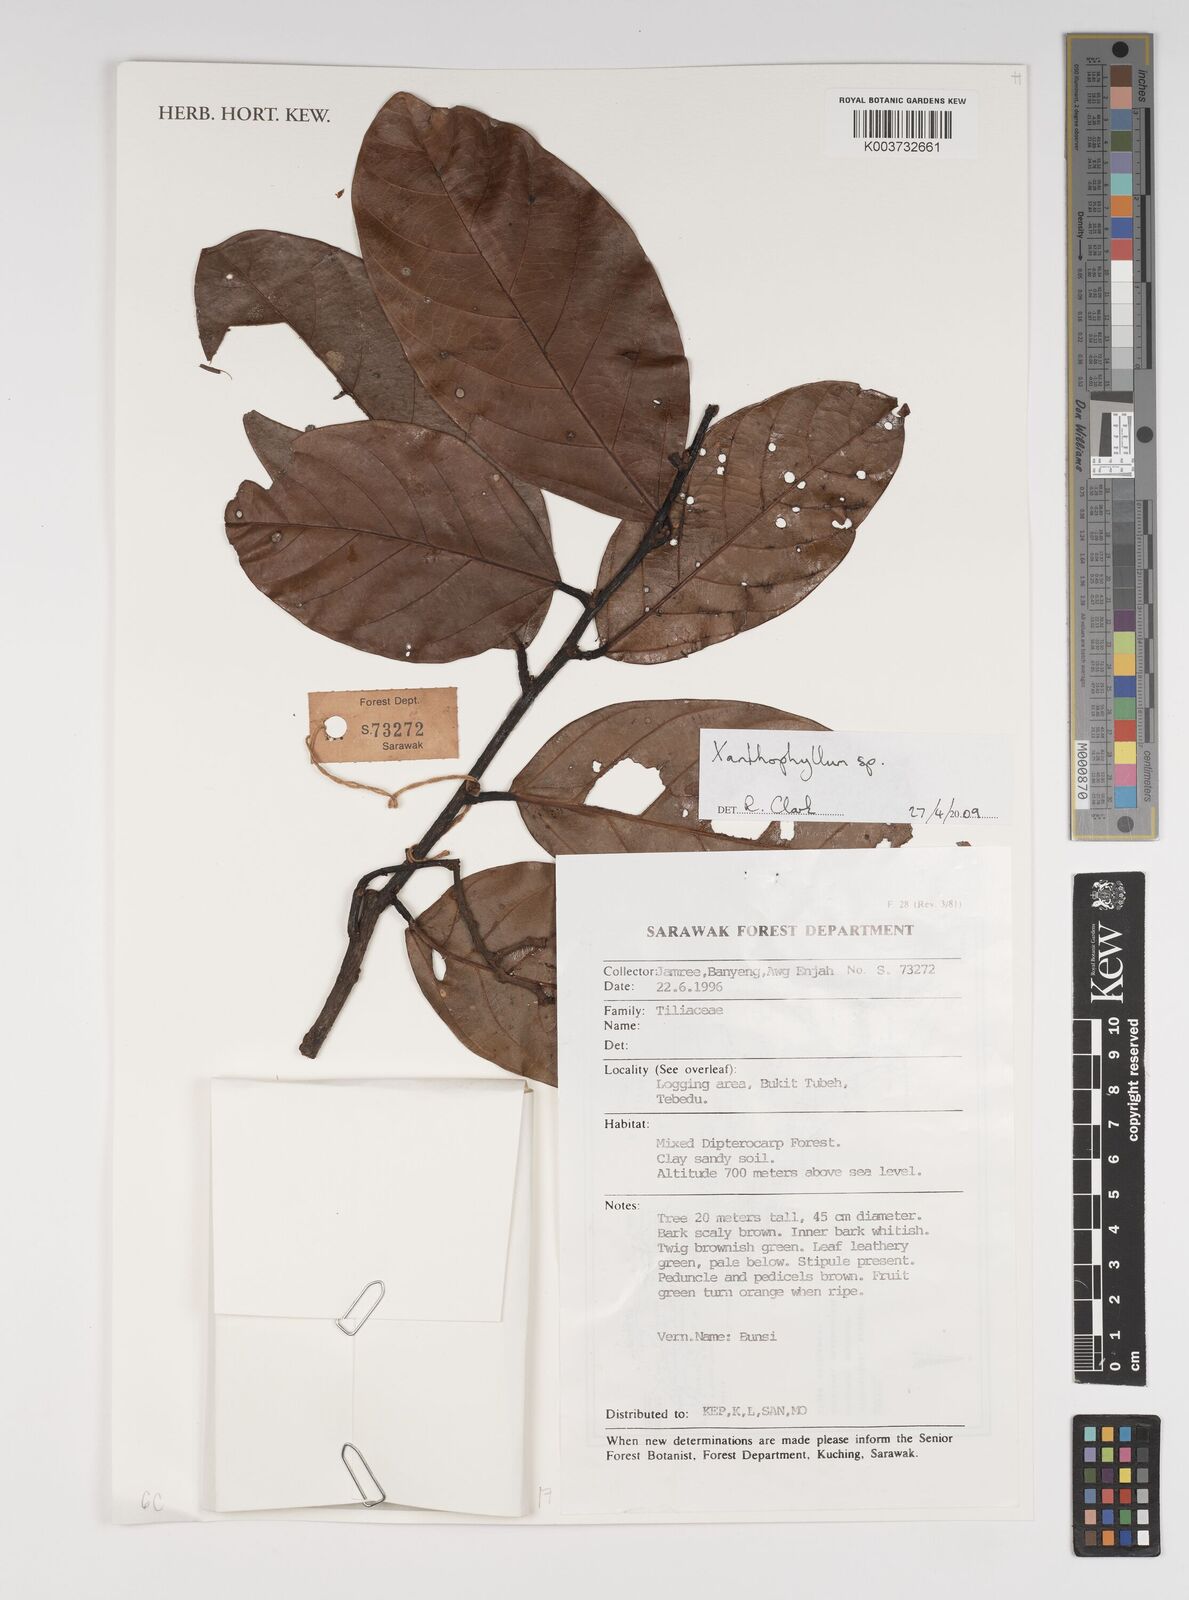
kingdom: Plantae
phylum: Tracheophyta
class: Magnoliopsida
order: Fabales
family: Polygalaceae
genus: Xanthophyllum
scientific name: Xanthophyllum
